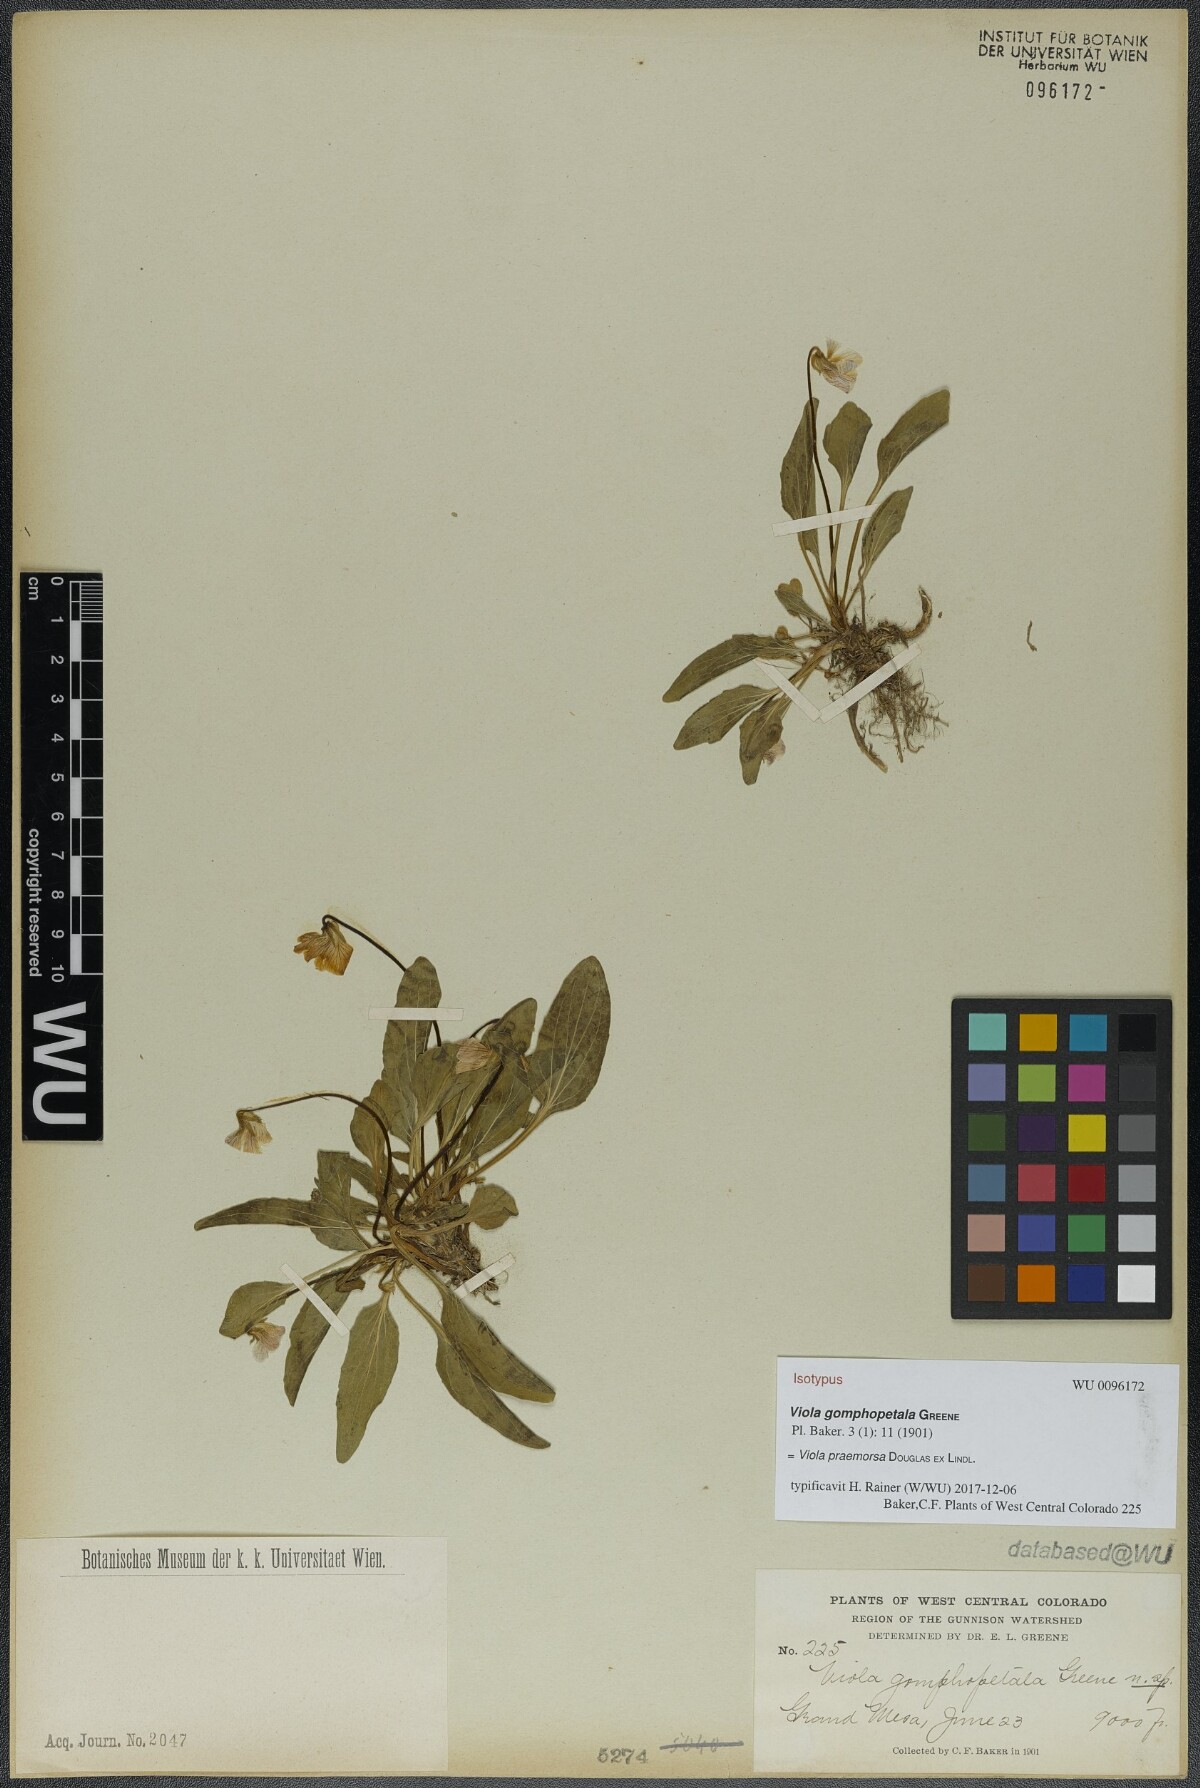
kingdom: Plantae
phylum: Tracheophyta
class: Magnoliopsida
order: Malpighiales
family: Violaceae
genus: Viola
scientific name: Viola praemorsa
